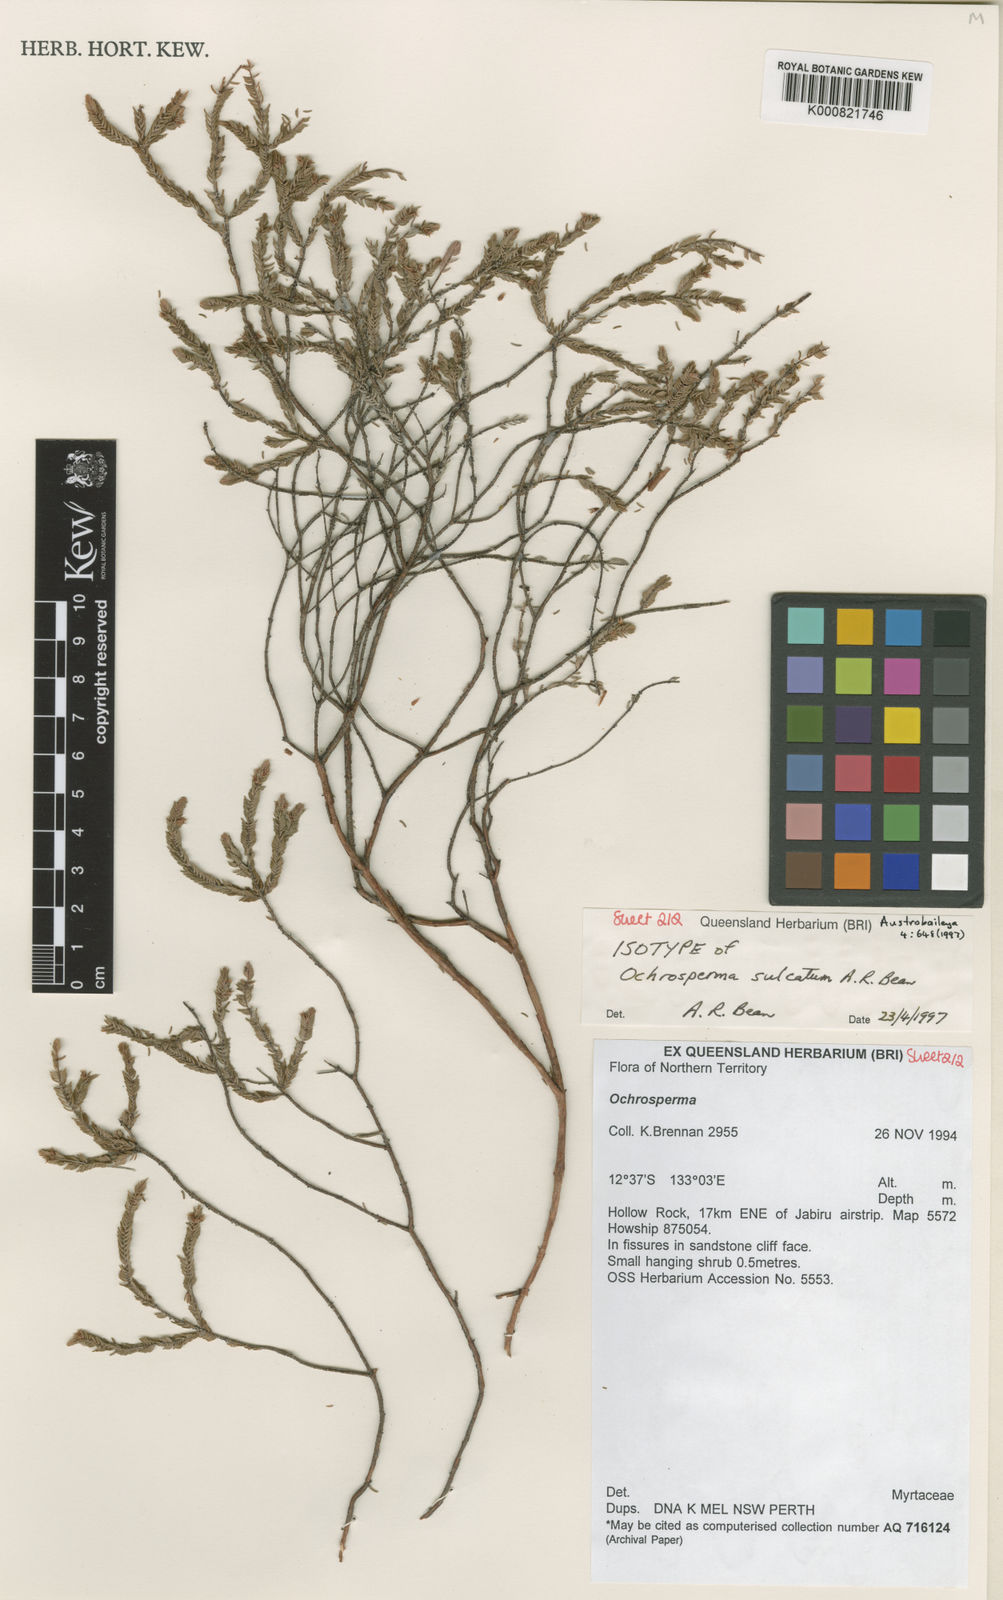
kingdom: Plantae
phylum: Tracheophyta
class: Magnoliopsida
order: Myrtales
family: Myrtaceae
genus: Ochrosperma
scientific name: Ochrosperma sulcatum
